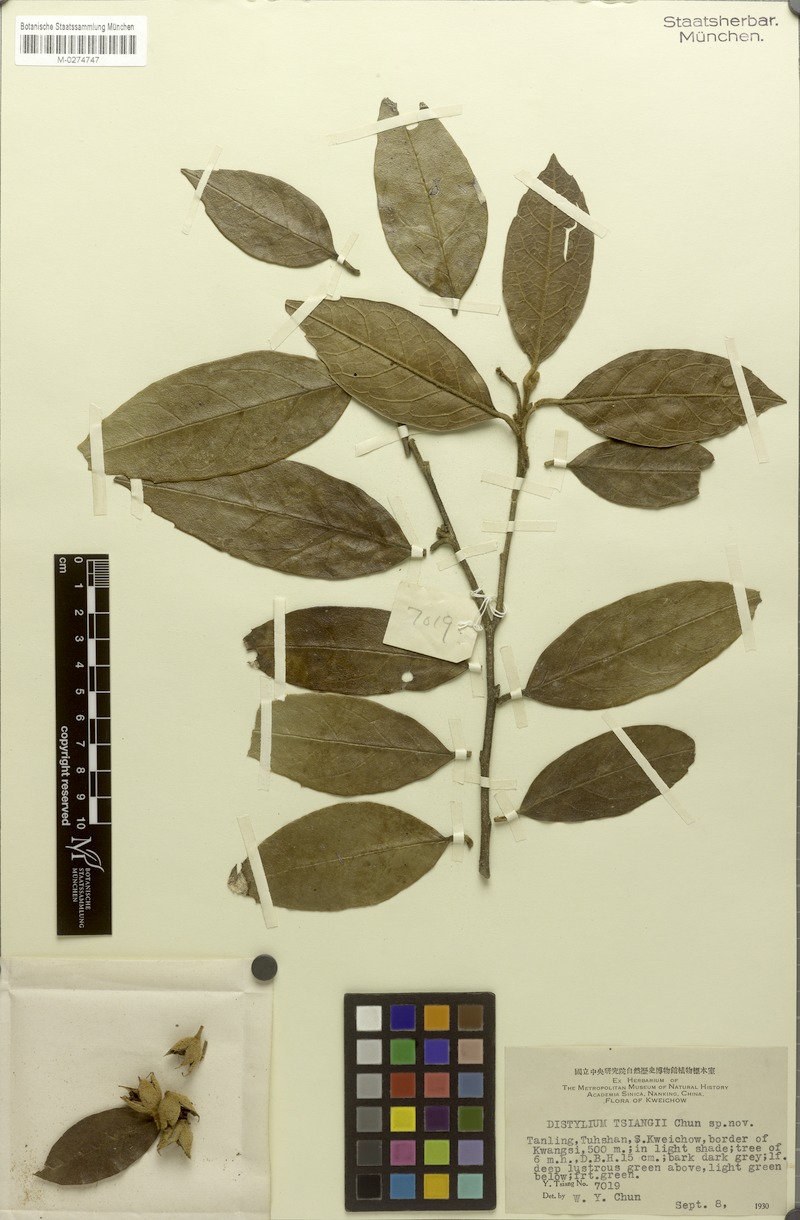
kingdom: Plantae
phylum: Tracheophyta
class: Magnoliopsida
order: Saxifragales
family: Hamamelidaceae
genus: Distylium
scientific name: Distylium tsiangii
